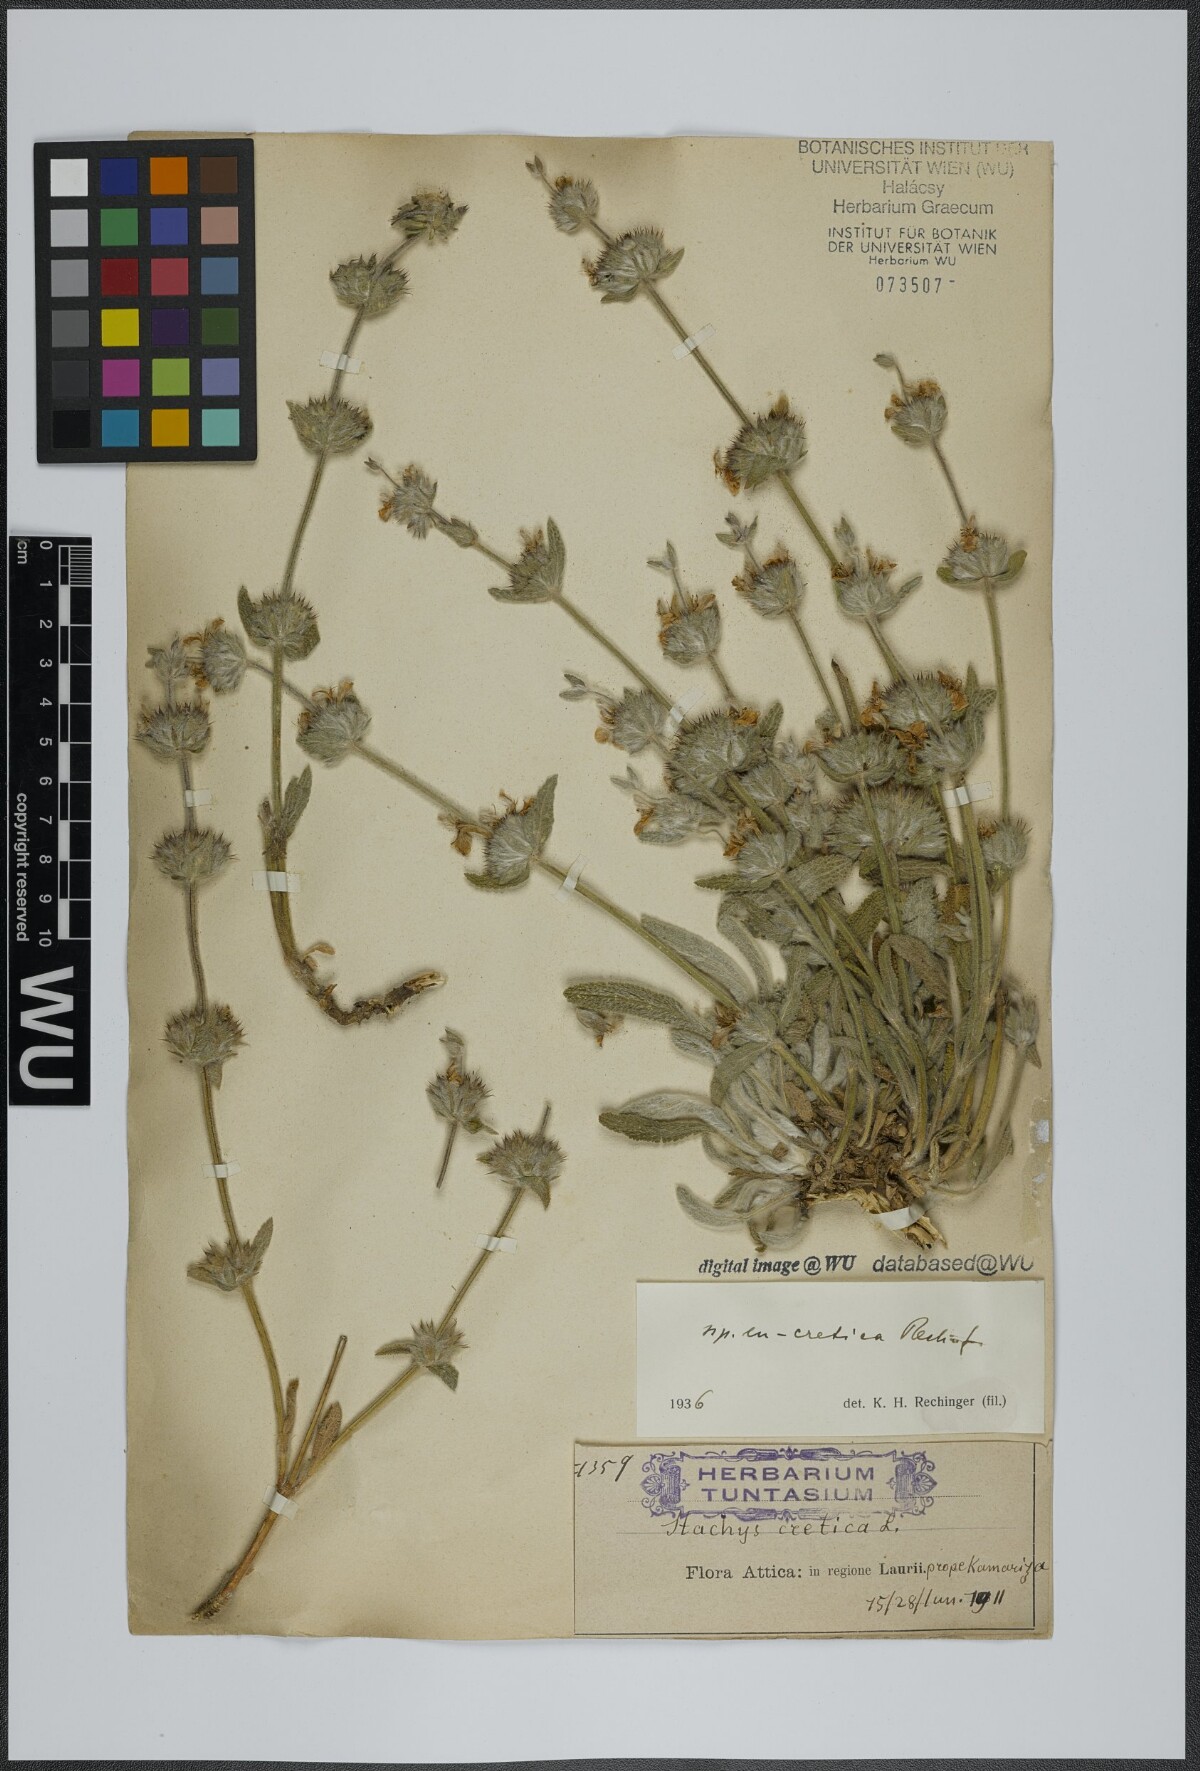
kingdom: Plantae
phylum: Tracheophyta
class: Magnoliopsida
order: Lamiales
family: Lamiaceae
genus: Stachys
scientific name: Stachys cretica
